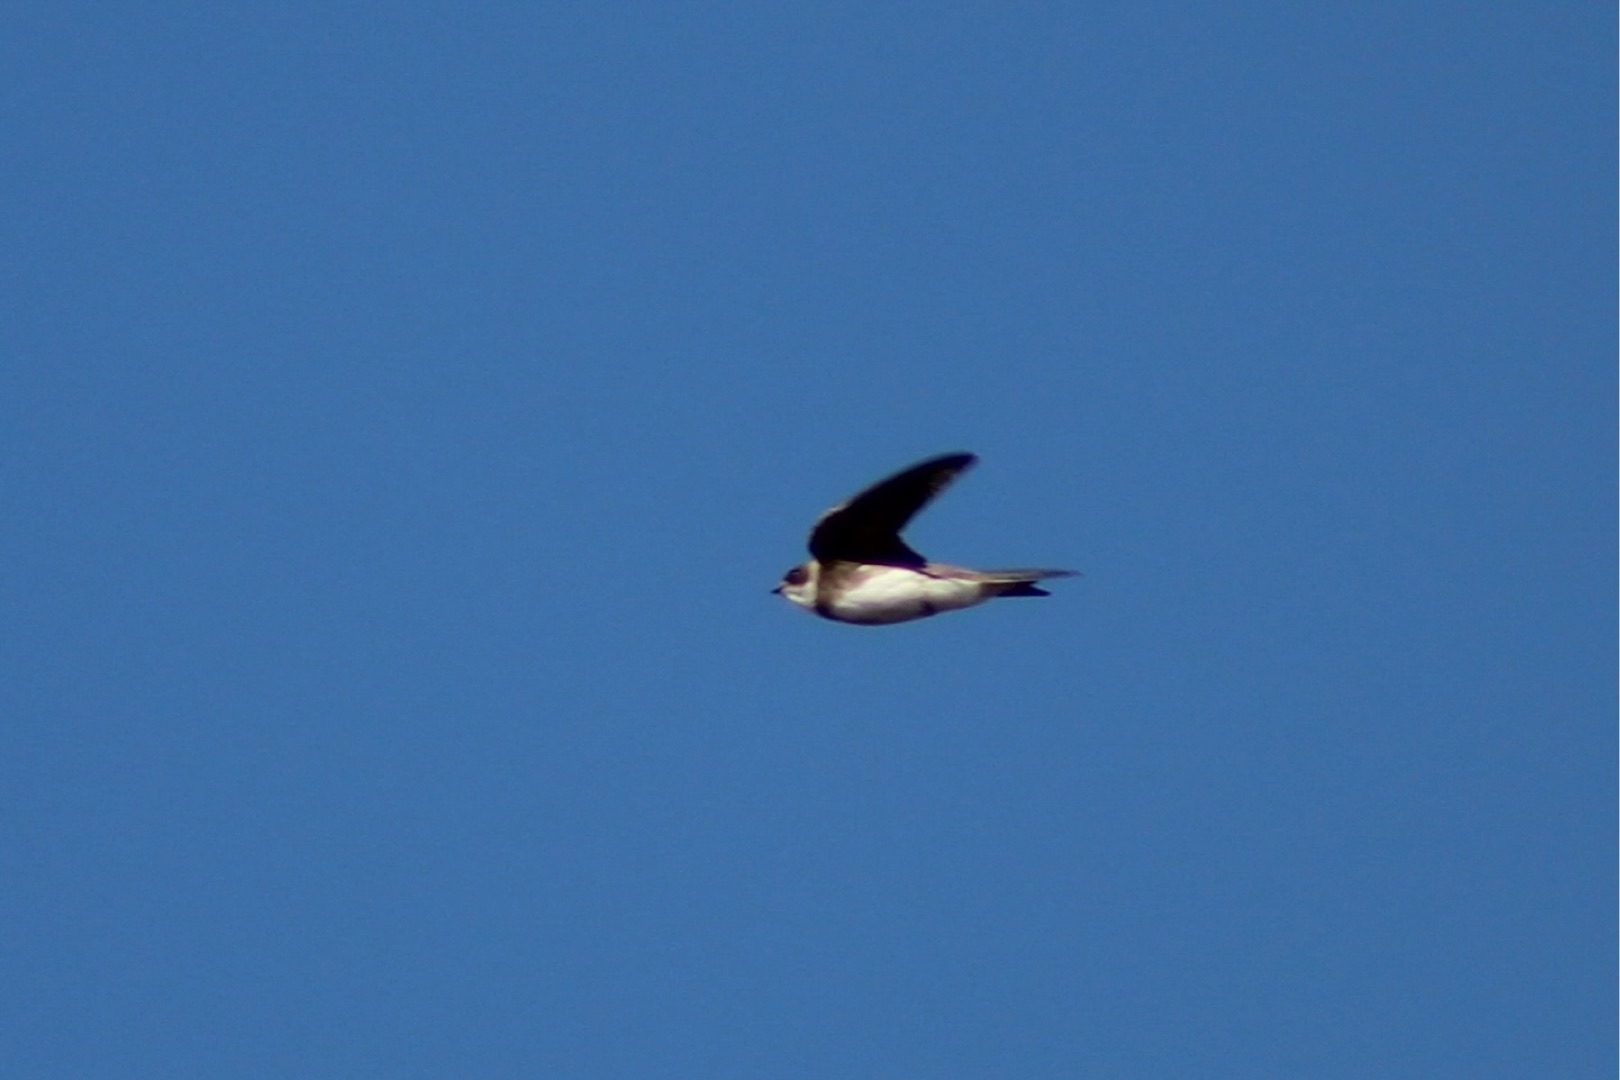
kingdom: Animalia
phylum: Chordata
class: Aves
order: Passeriformes
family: Hirundinidae
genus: Riparia
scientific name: Riparia riparia
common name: Digesvale
